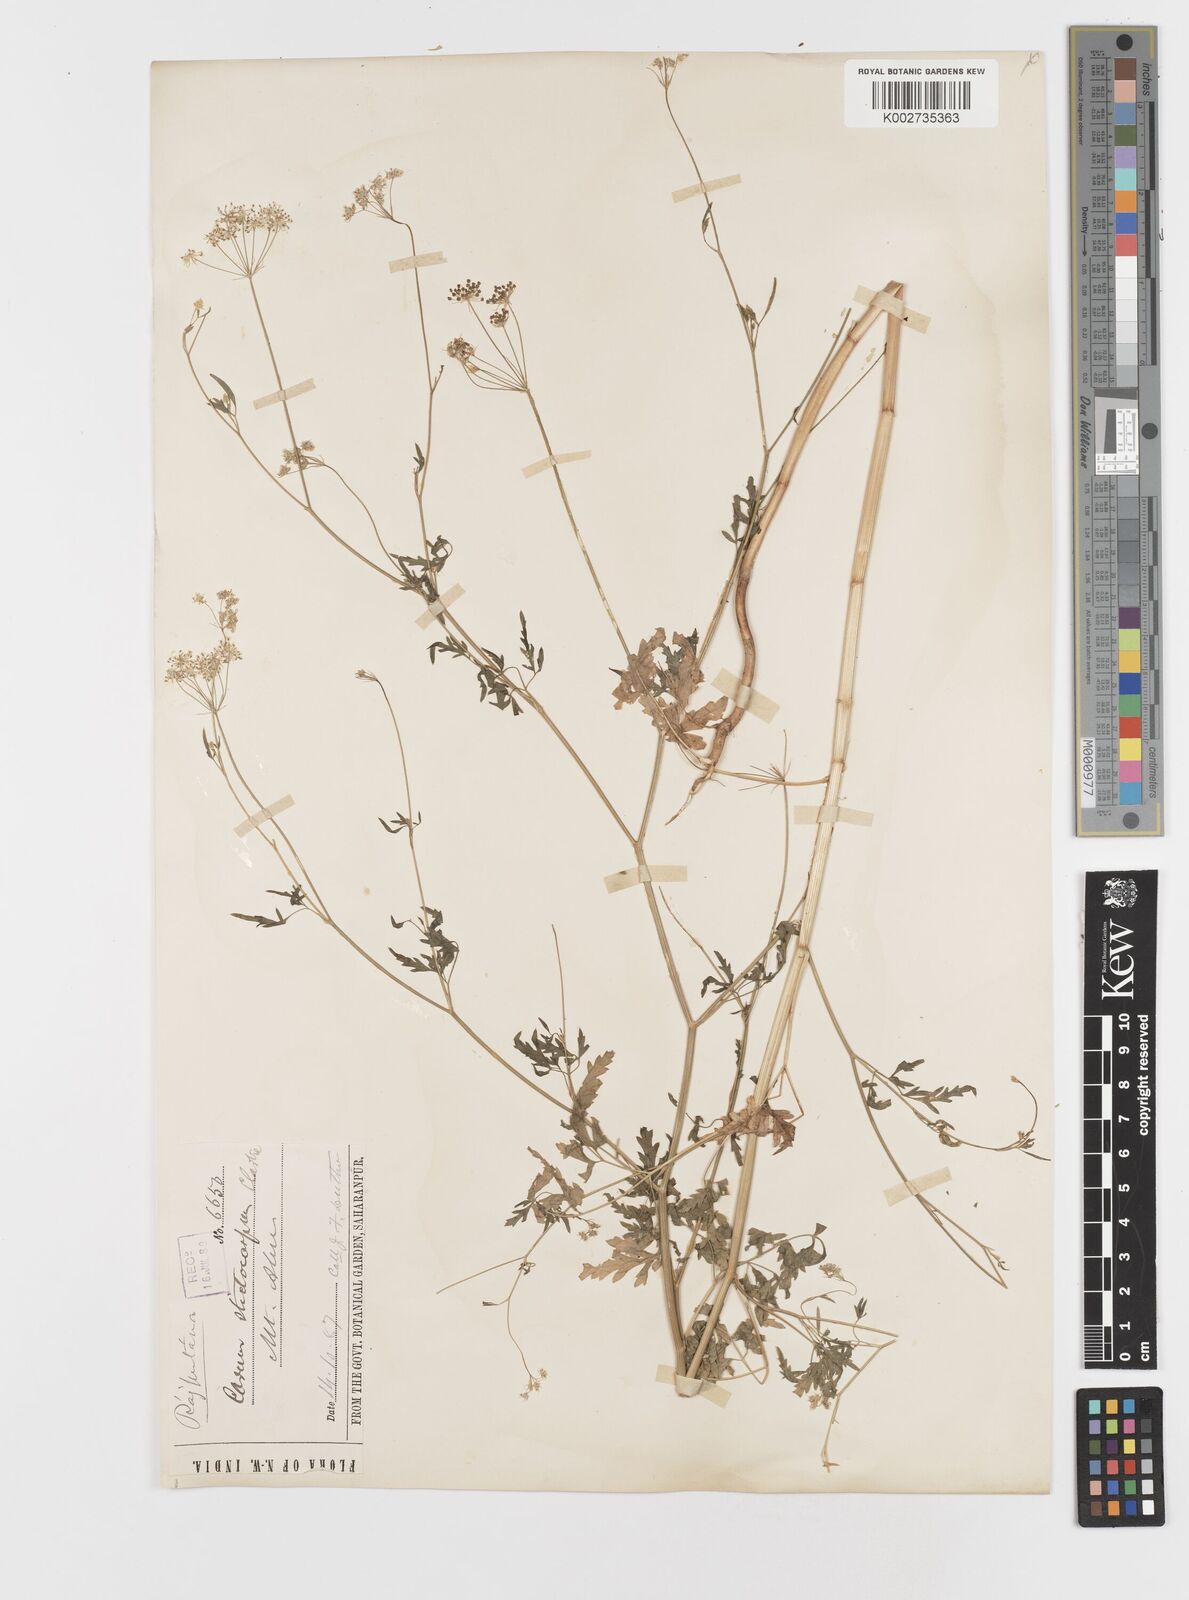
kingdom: Plantae
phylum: Tracheophyta
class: Magnoliopsida
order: Apiales
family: Apiaceae
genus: Psammogeton
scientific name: Psammogeton involucratum
